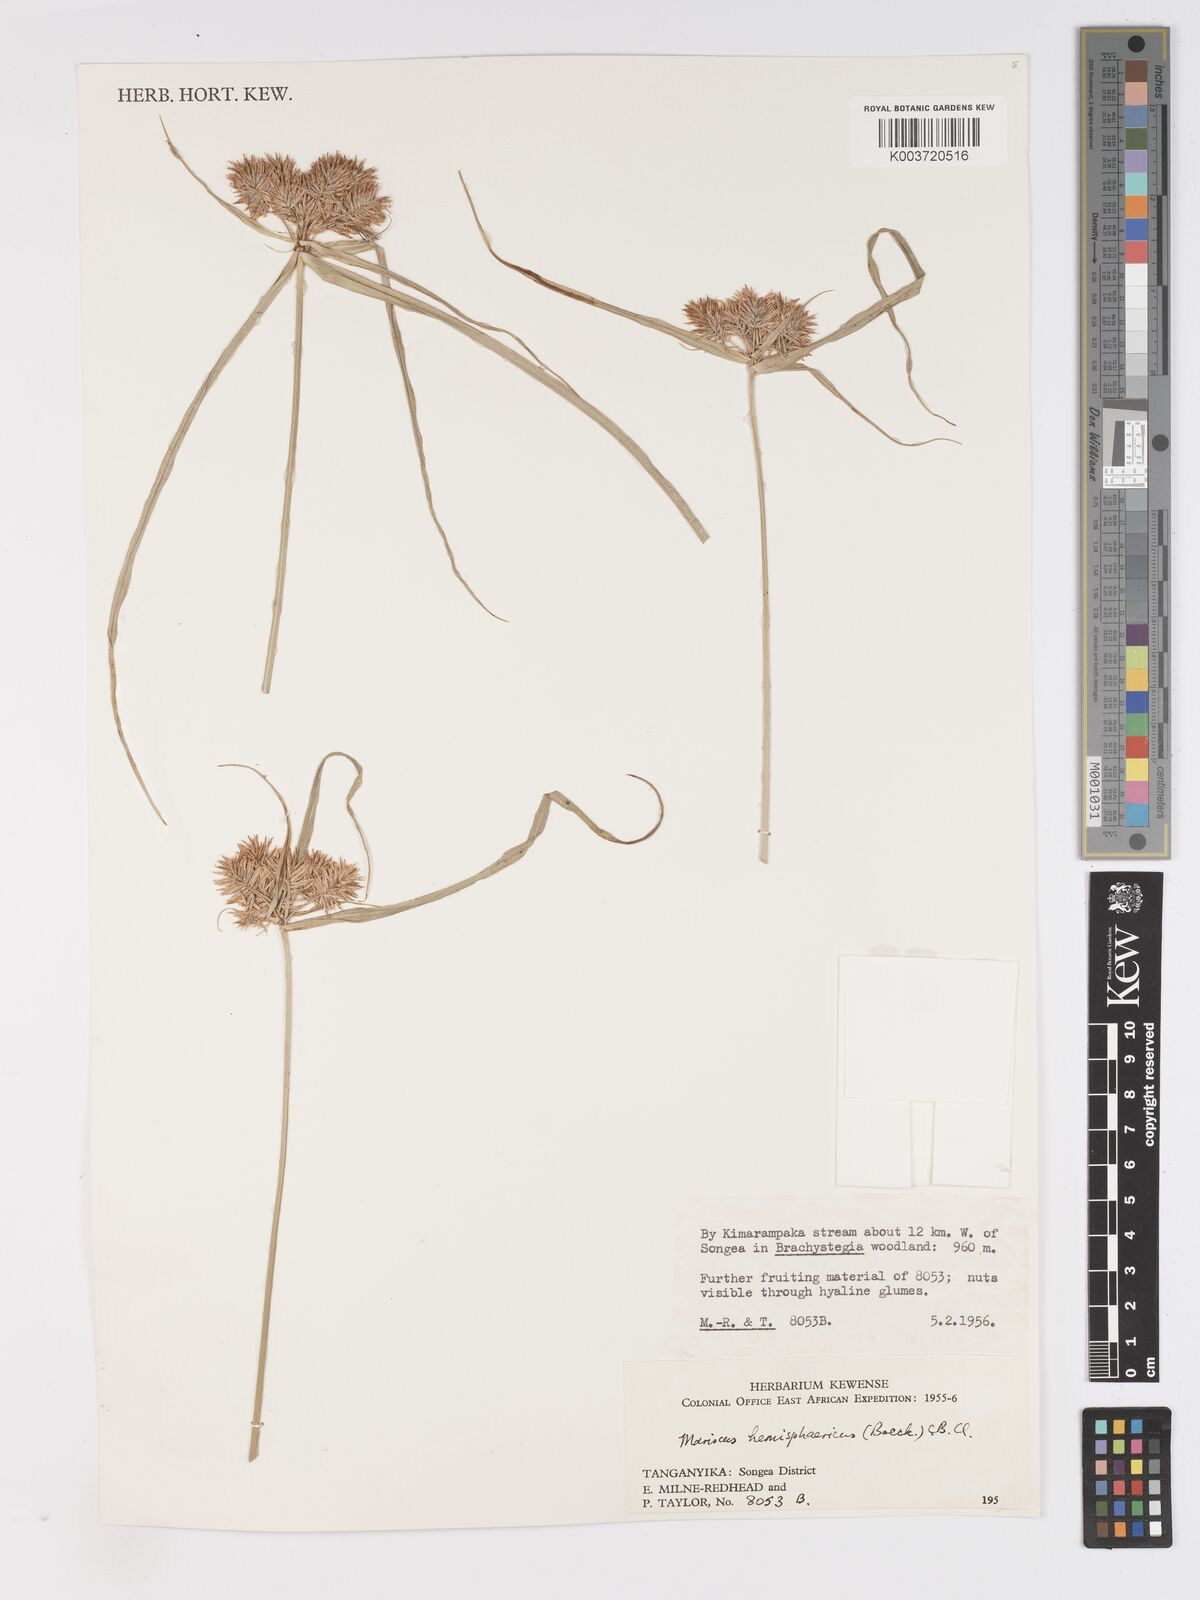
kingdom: Plantae
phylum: Tracheophyta
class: Liliopsida
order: Poales
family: Cyperaceae
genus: Cyperus
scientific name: Cyperus hemisphaericus
